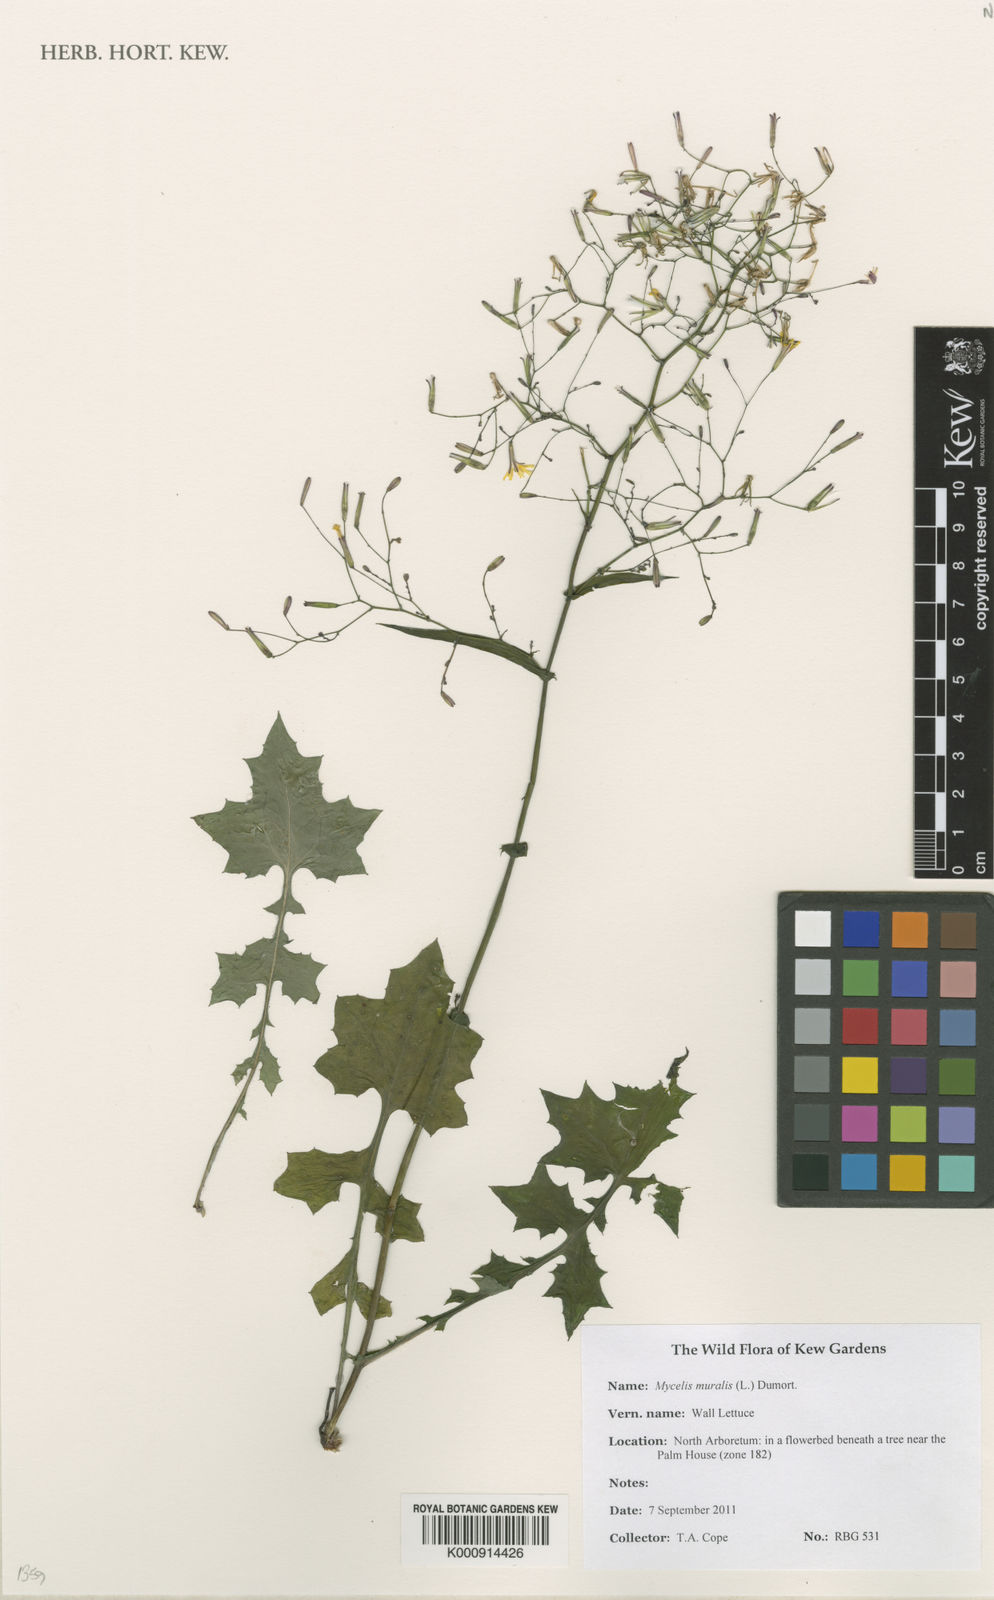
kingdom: Plantae
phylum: Tracheophyta
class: Magnoliopsida
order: Asterales
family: Asteraceae
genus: Mycelis
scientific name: Mycelis muralis
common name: Wall lettuce
